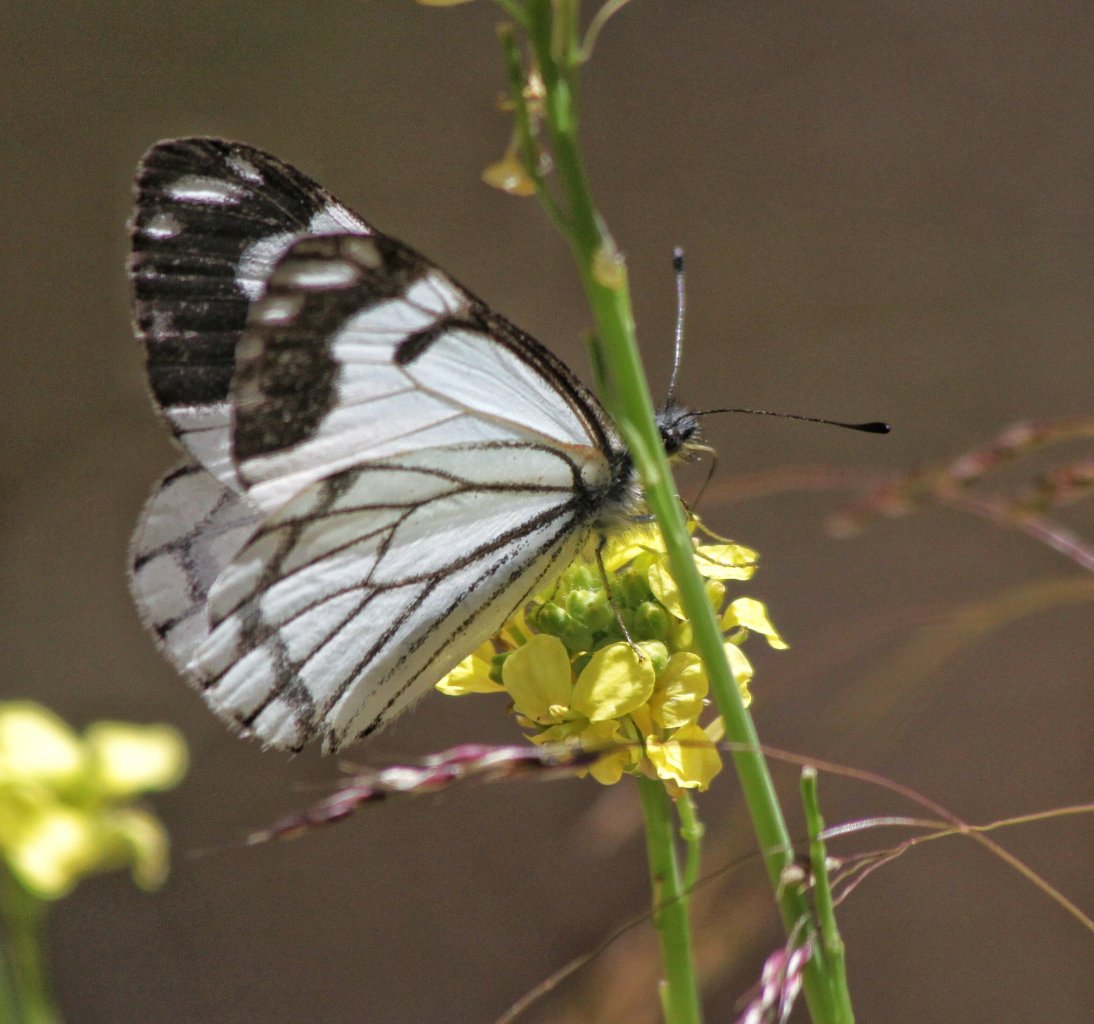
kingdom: Animalia
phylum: Arthropoda
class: Insecta
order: Lepidoptera
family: Pieridae
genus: Neophasia
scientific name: Neophasia menapia
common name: Pine White
